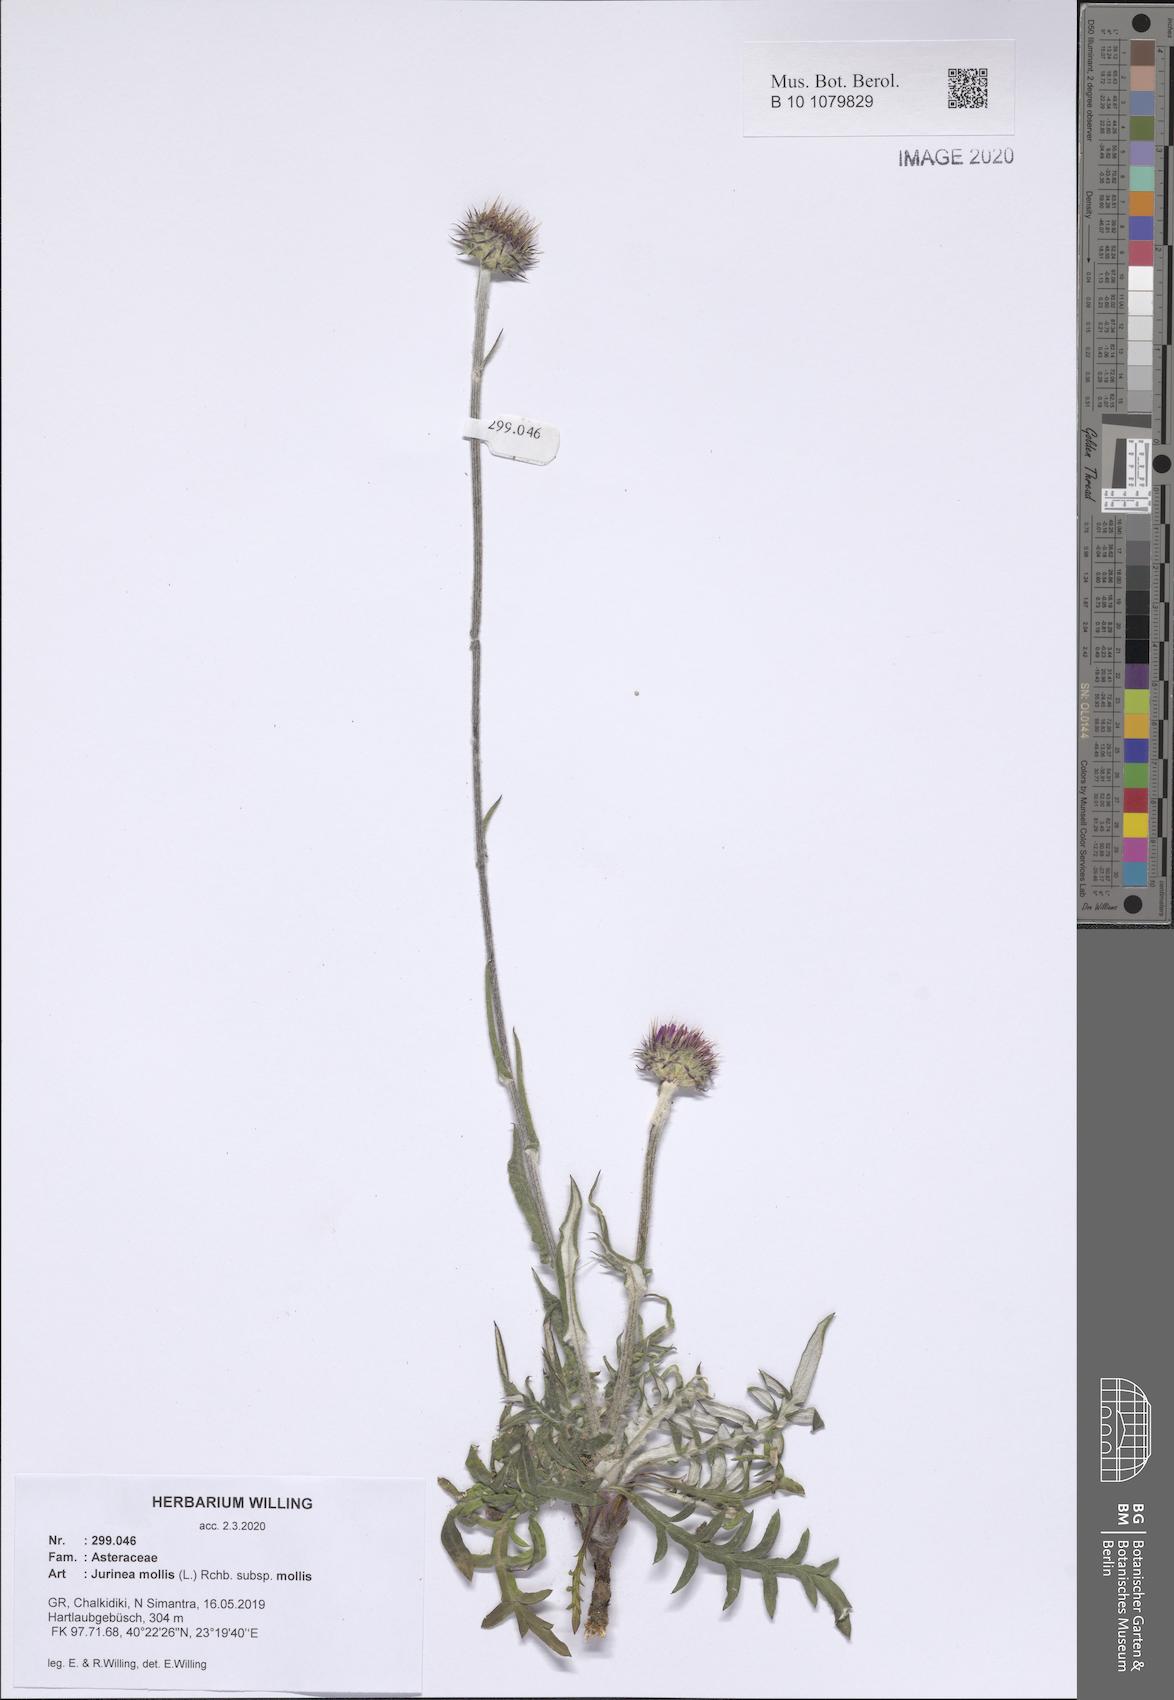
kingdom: Plantae
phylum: Tracheophyta
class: Magnoliopsida
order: Asterales
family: Asteraceae
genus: Jurinea
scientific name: Jurinea mollis
